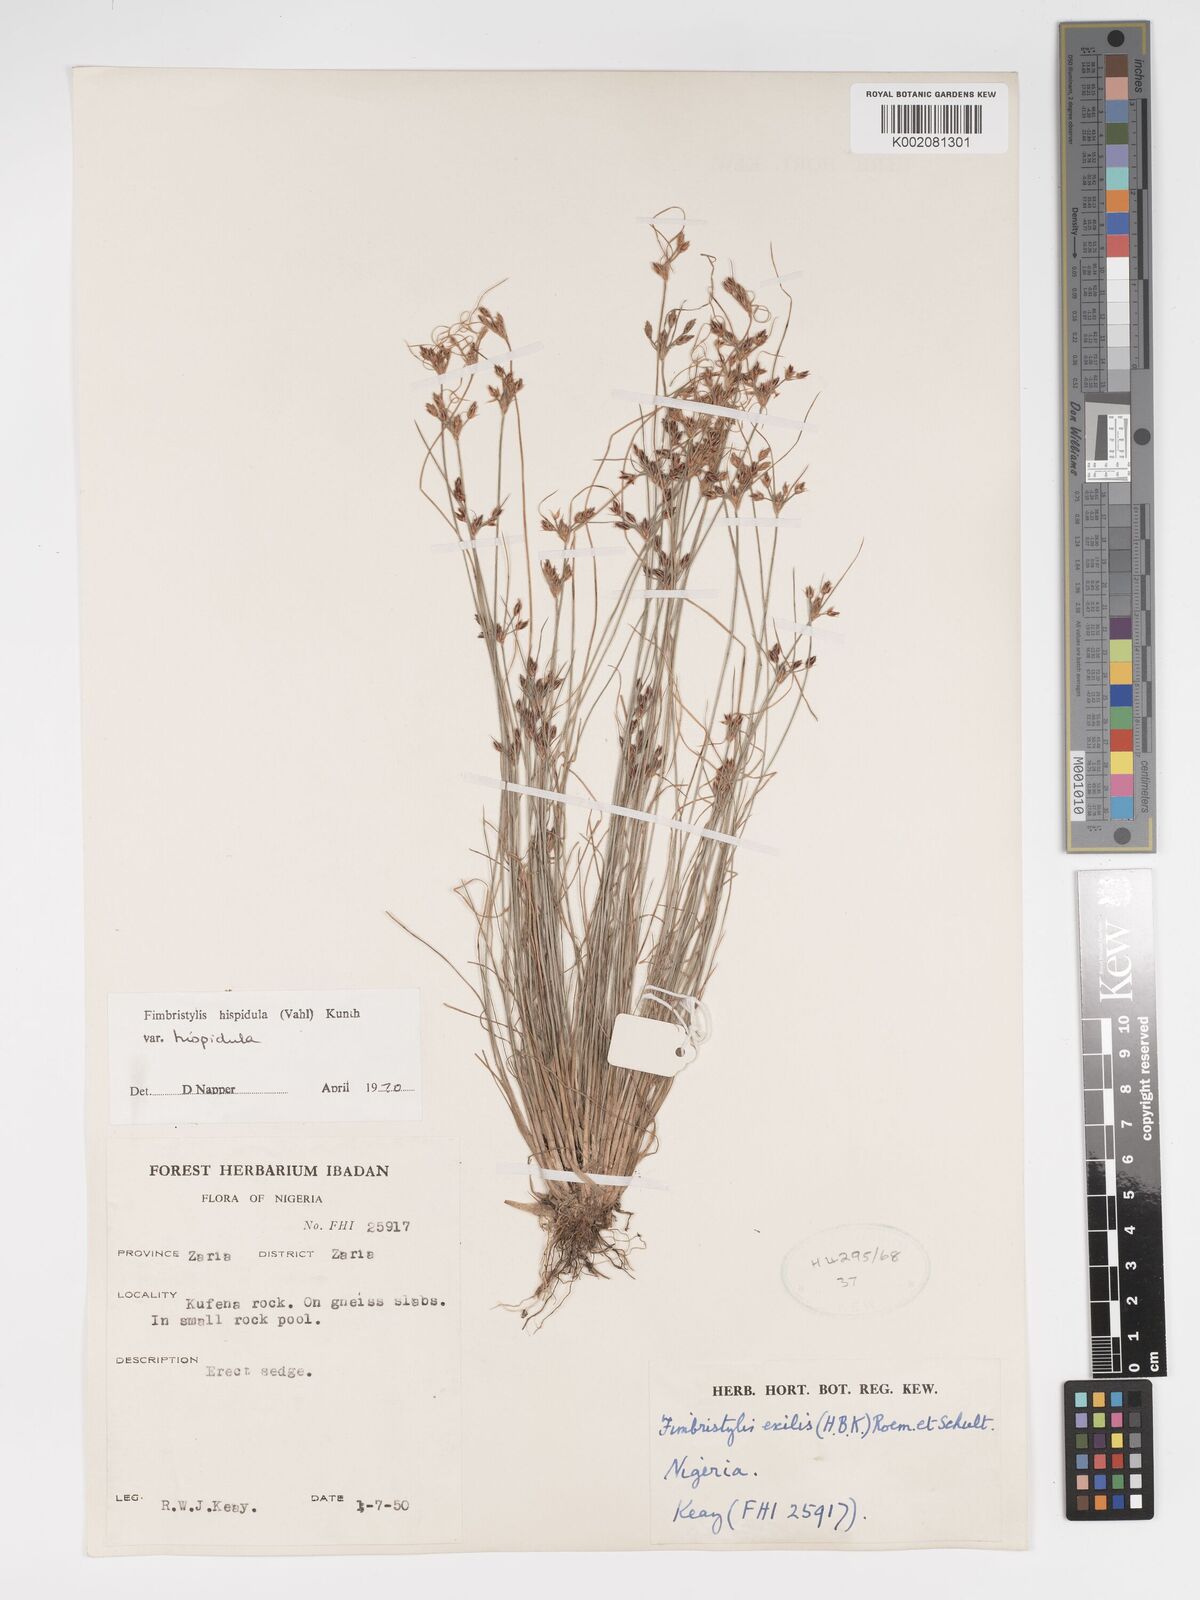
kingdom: Plantae
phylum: Tracheophyta
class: Liliopsida
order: Poales
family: Cyperaceae
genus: Bulbostylis
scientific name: Bulbostylis hispidula
